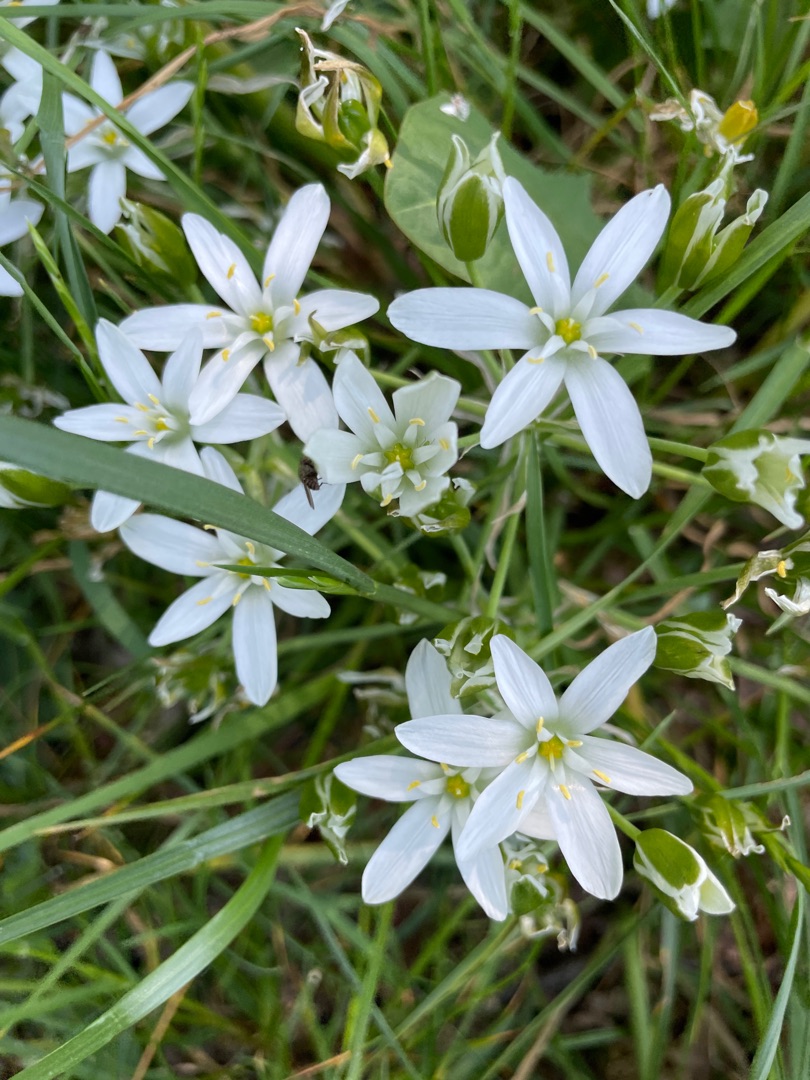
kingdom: Plantae
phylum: Tracheophyta
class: Liliopsida
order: Asparagales
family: Asparagaceae
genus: Ornithogalum
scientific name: Ornithogalum umbellatum
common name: Kost-fuglemælk
